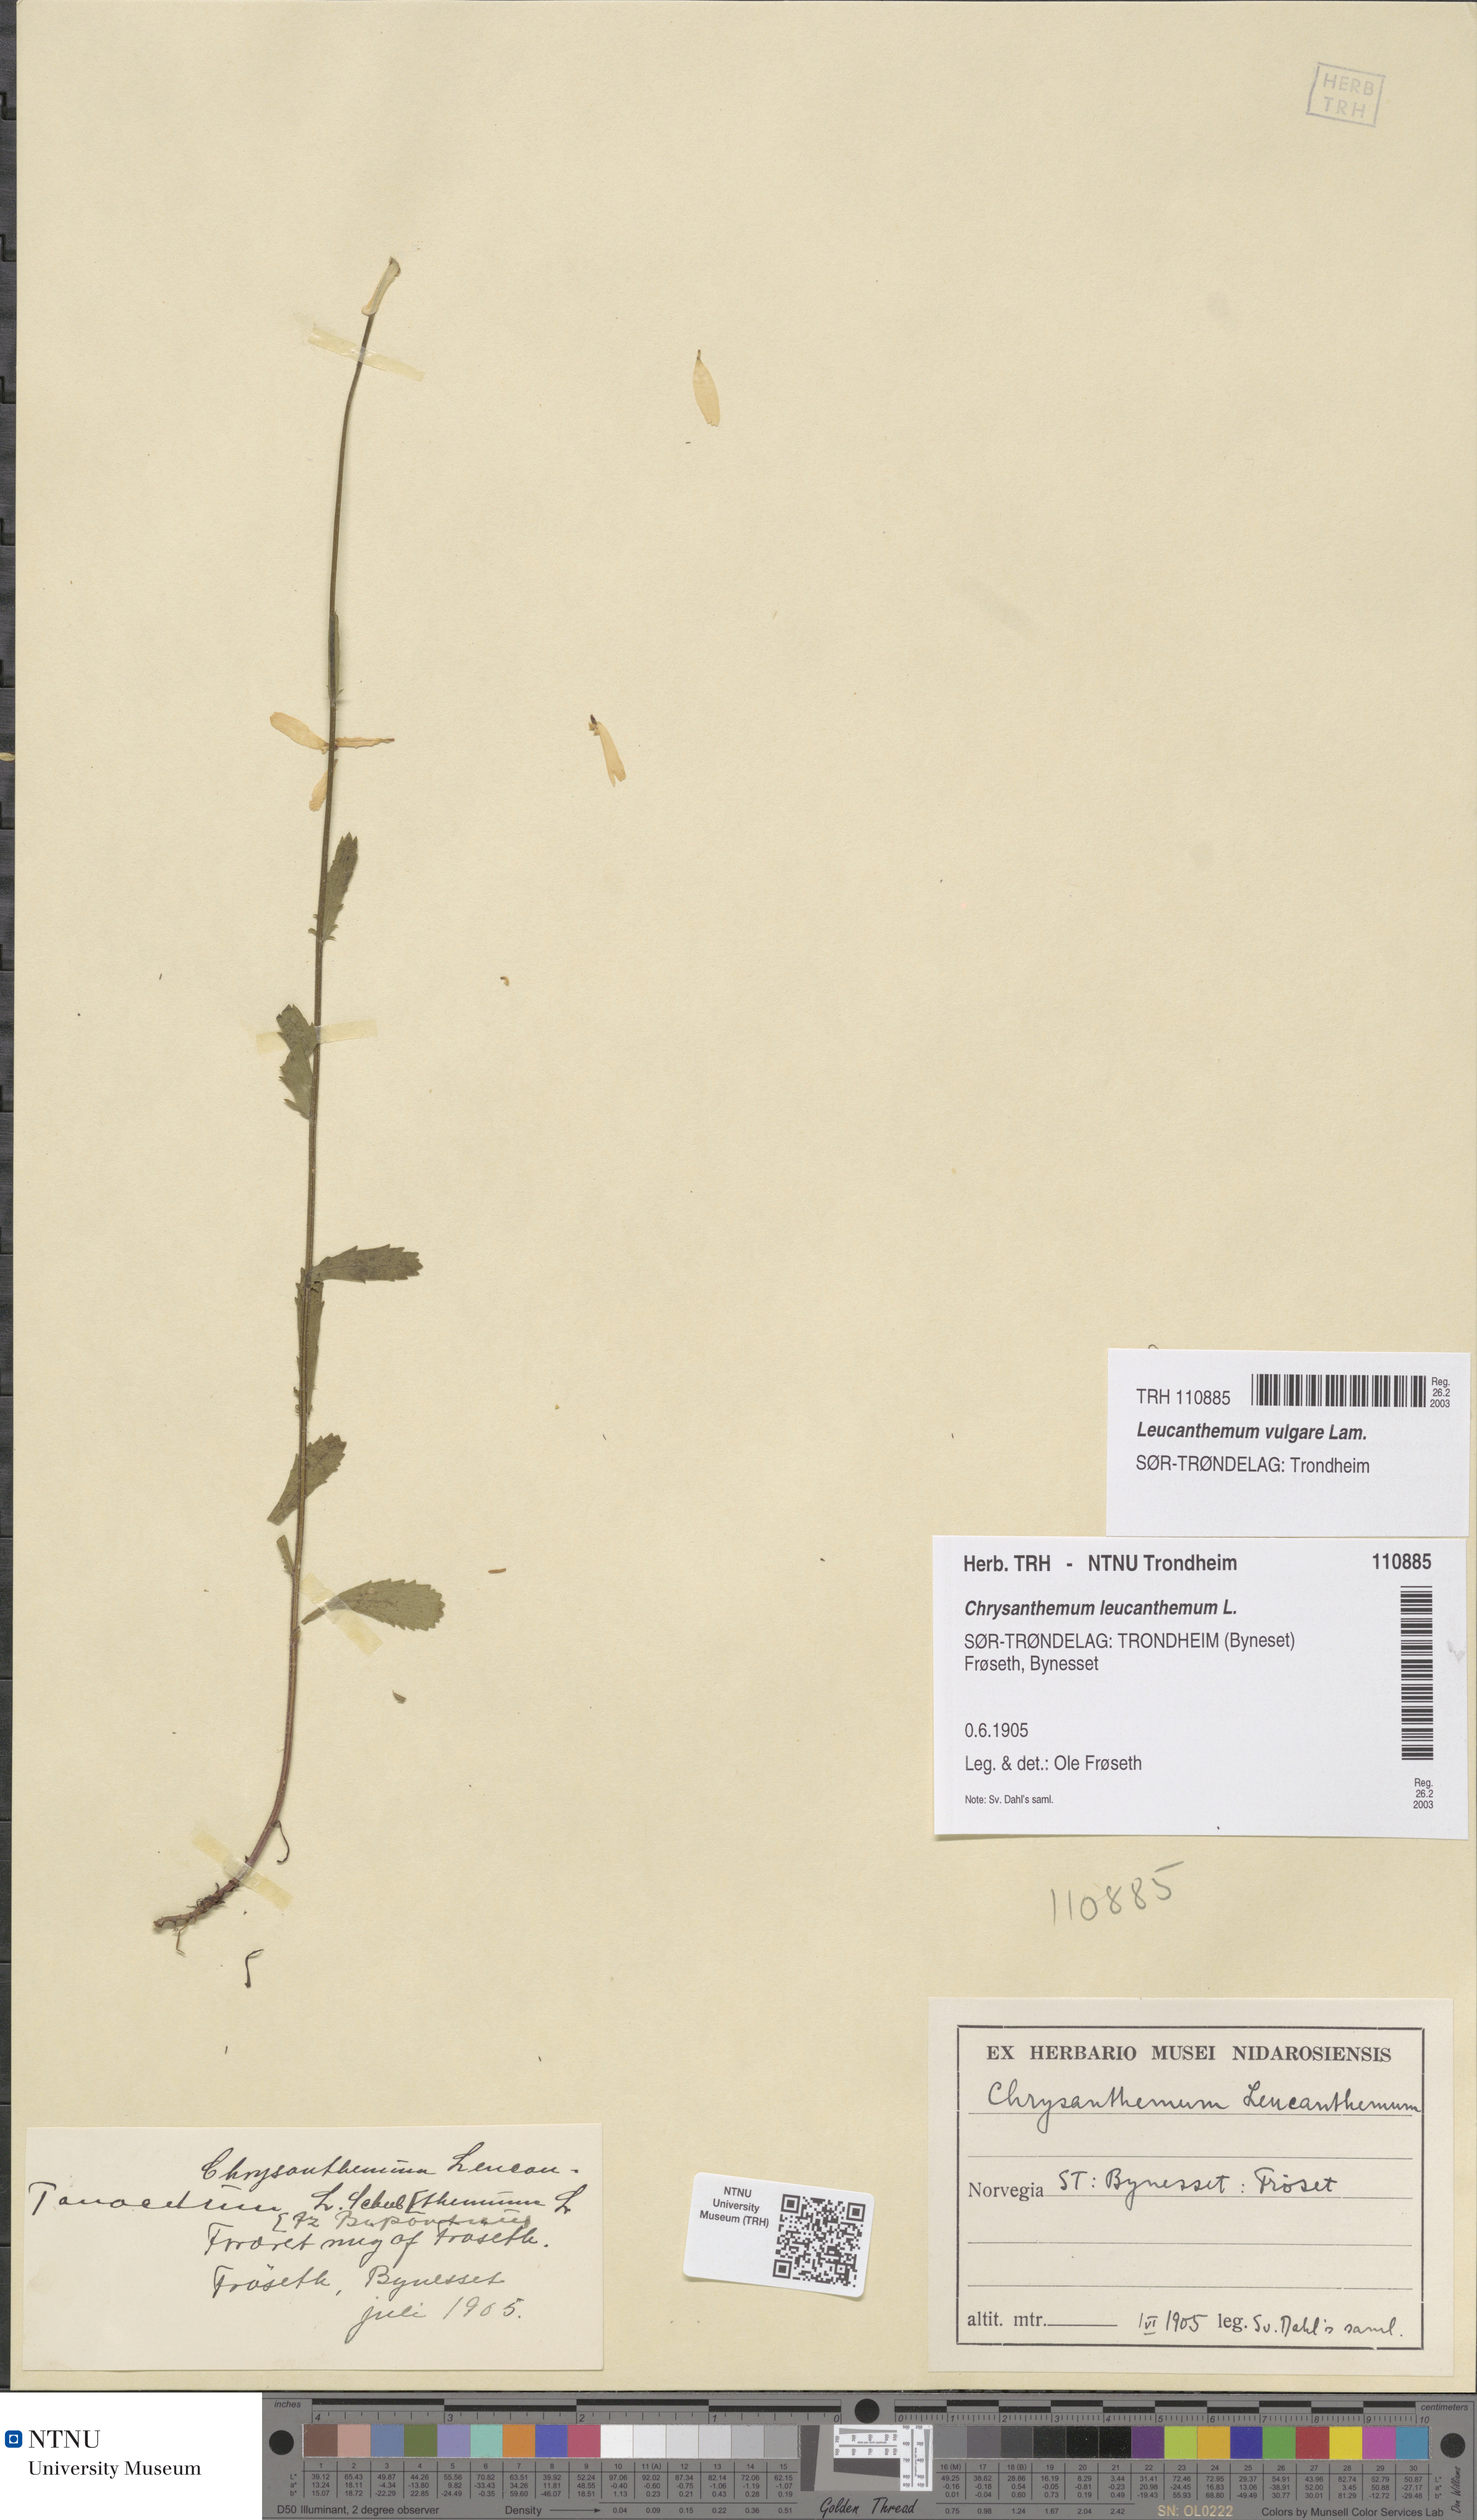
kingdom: Plantae
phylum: Tracheophyta
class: Magnoliopsida
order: Asterales
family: Asteraceae
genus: Leucanthemum
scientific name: Leucanthemum vulgare
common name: Oxeye daisy
